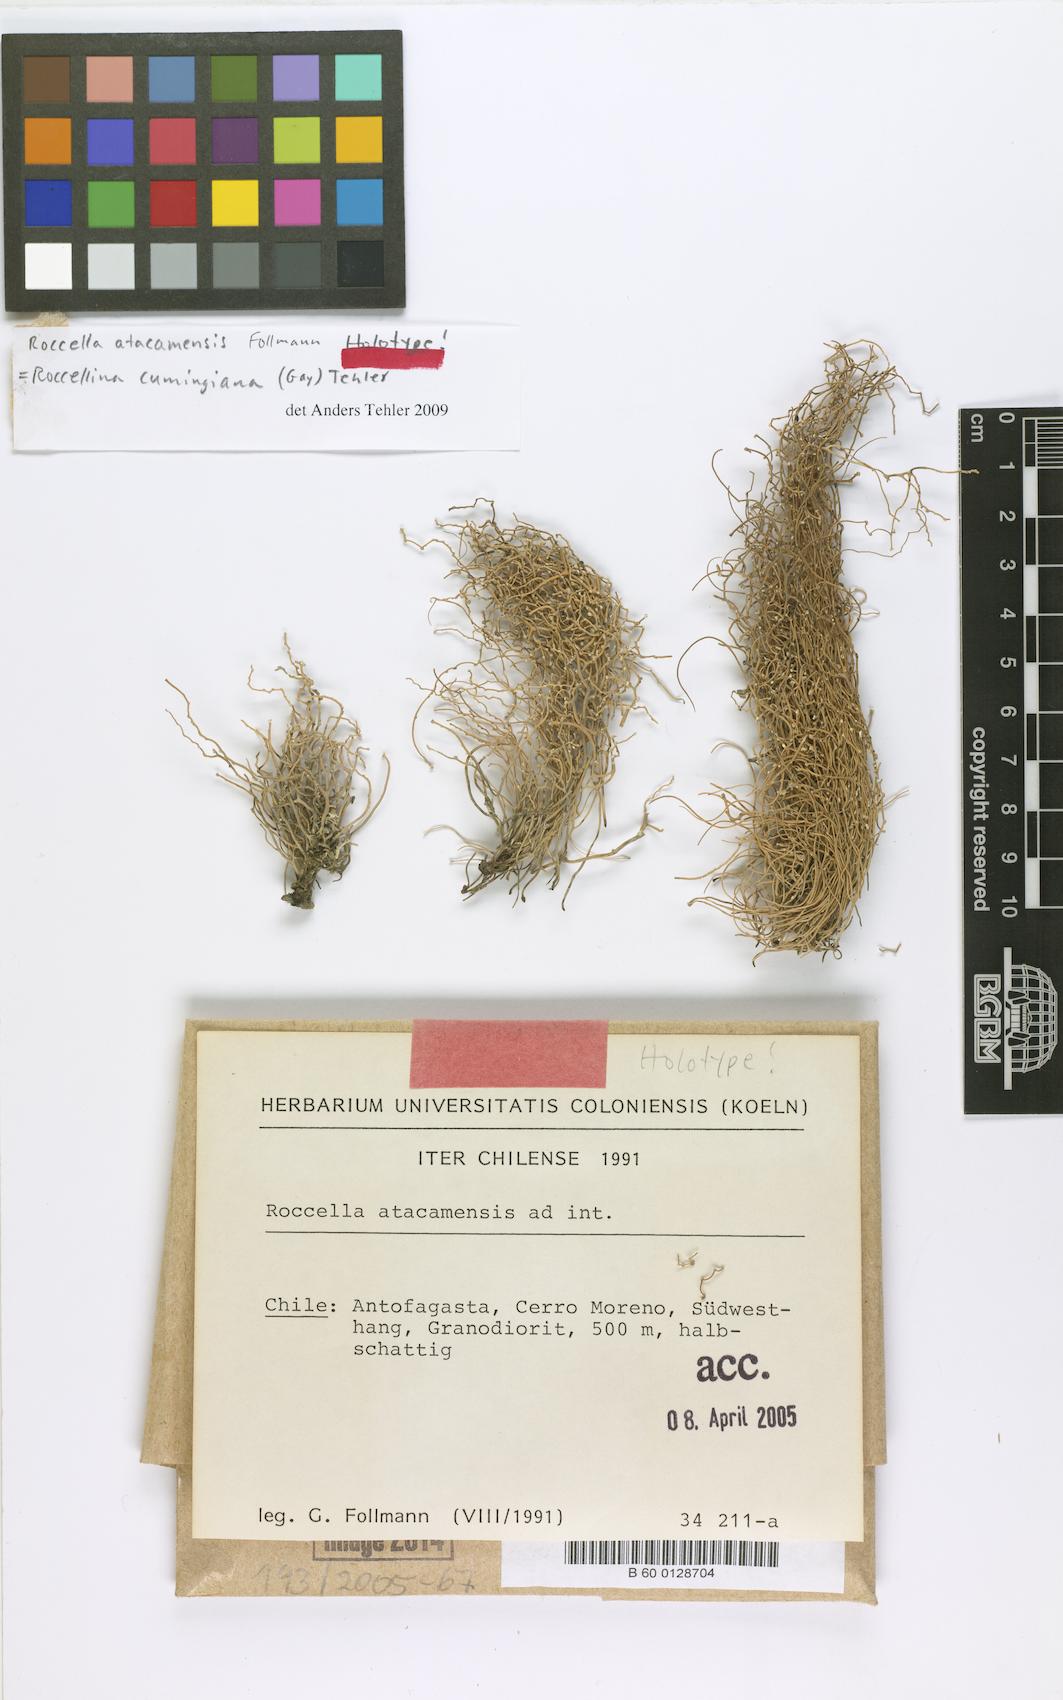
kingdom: Fungi
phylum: Ascomycota
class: Arthoniomycetes
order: Arthoniales
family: Roccellaceae
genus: Roccella
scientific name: Roccella atacamensis
